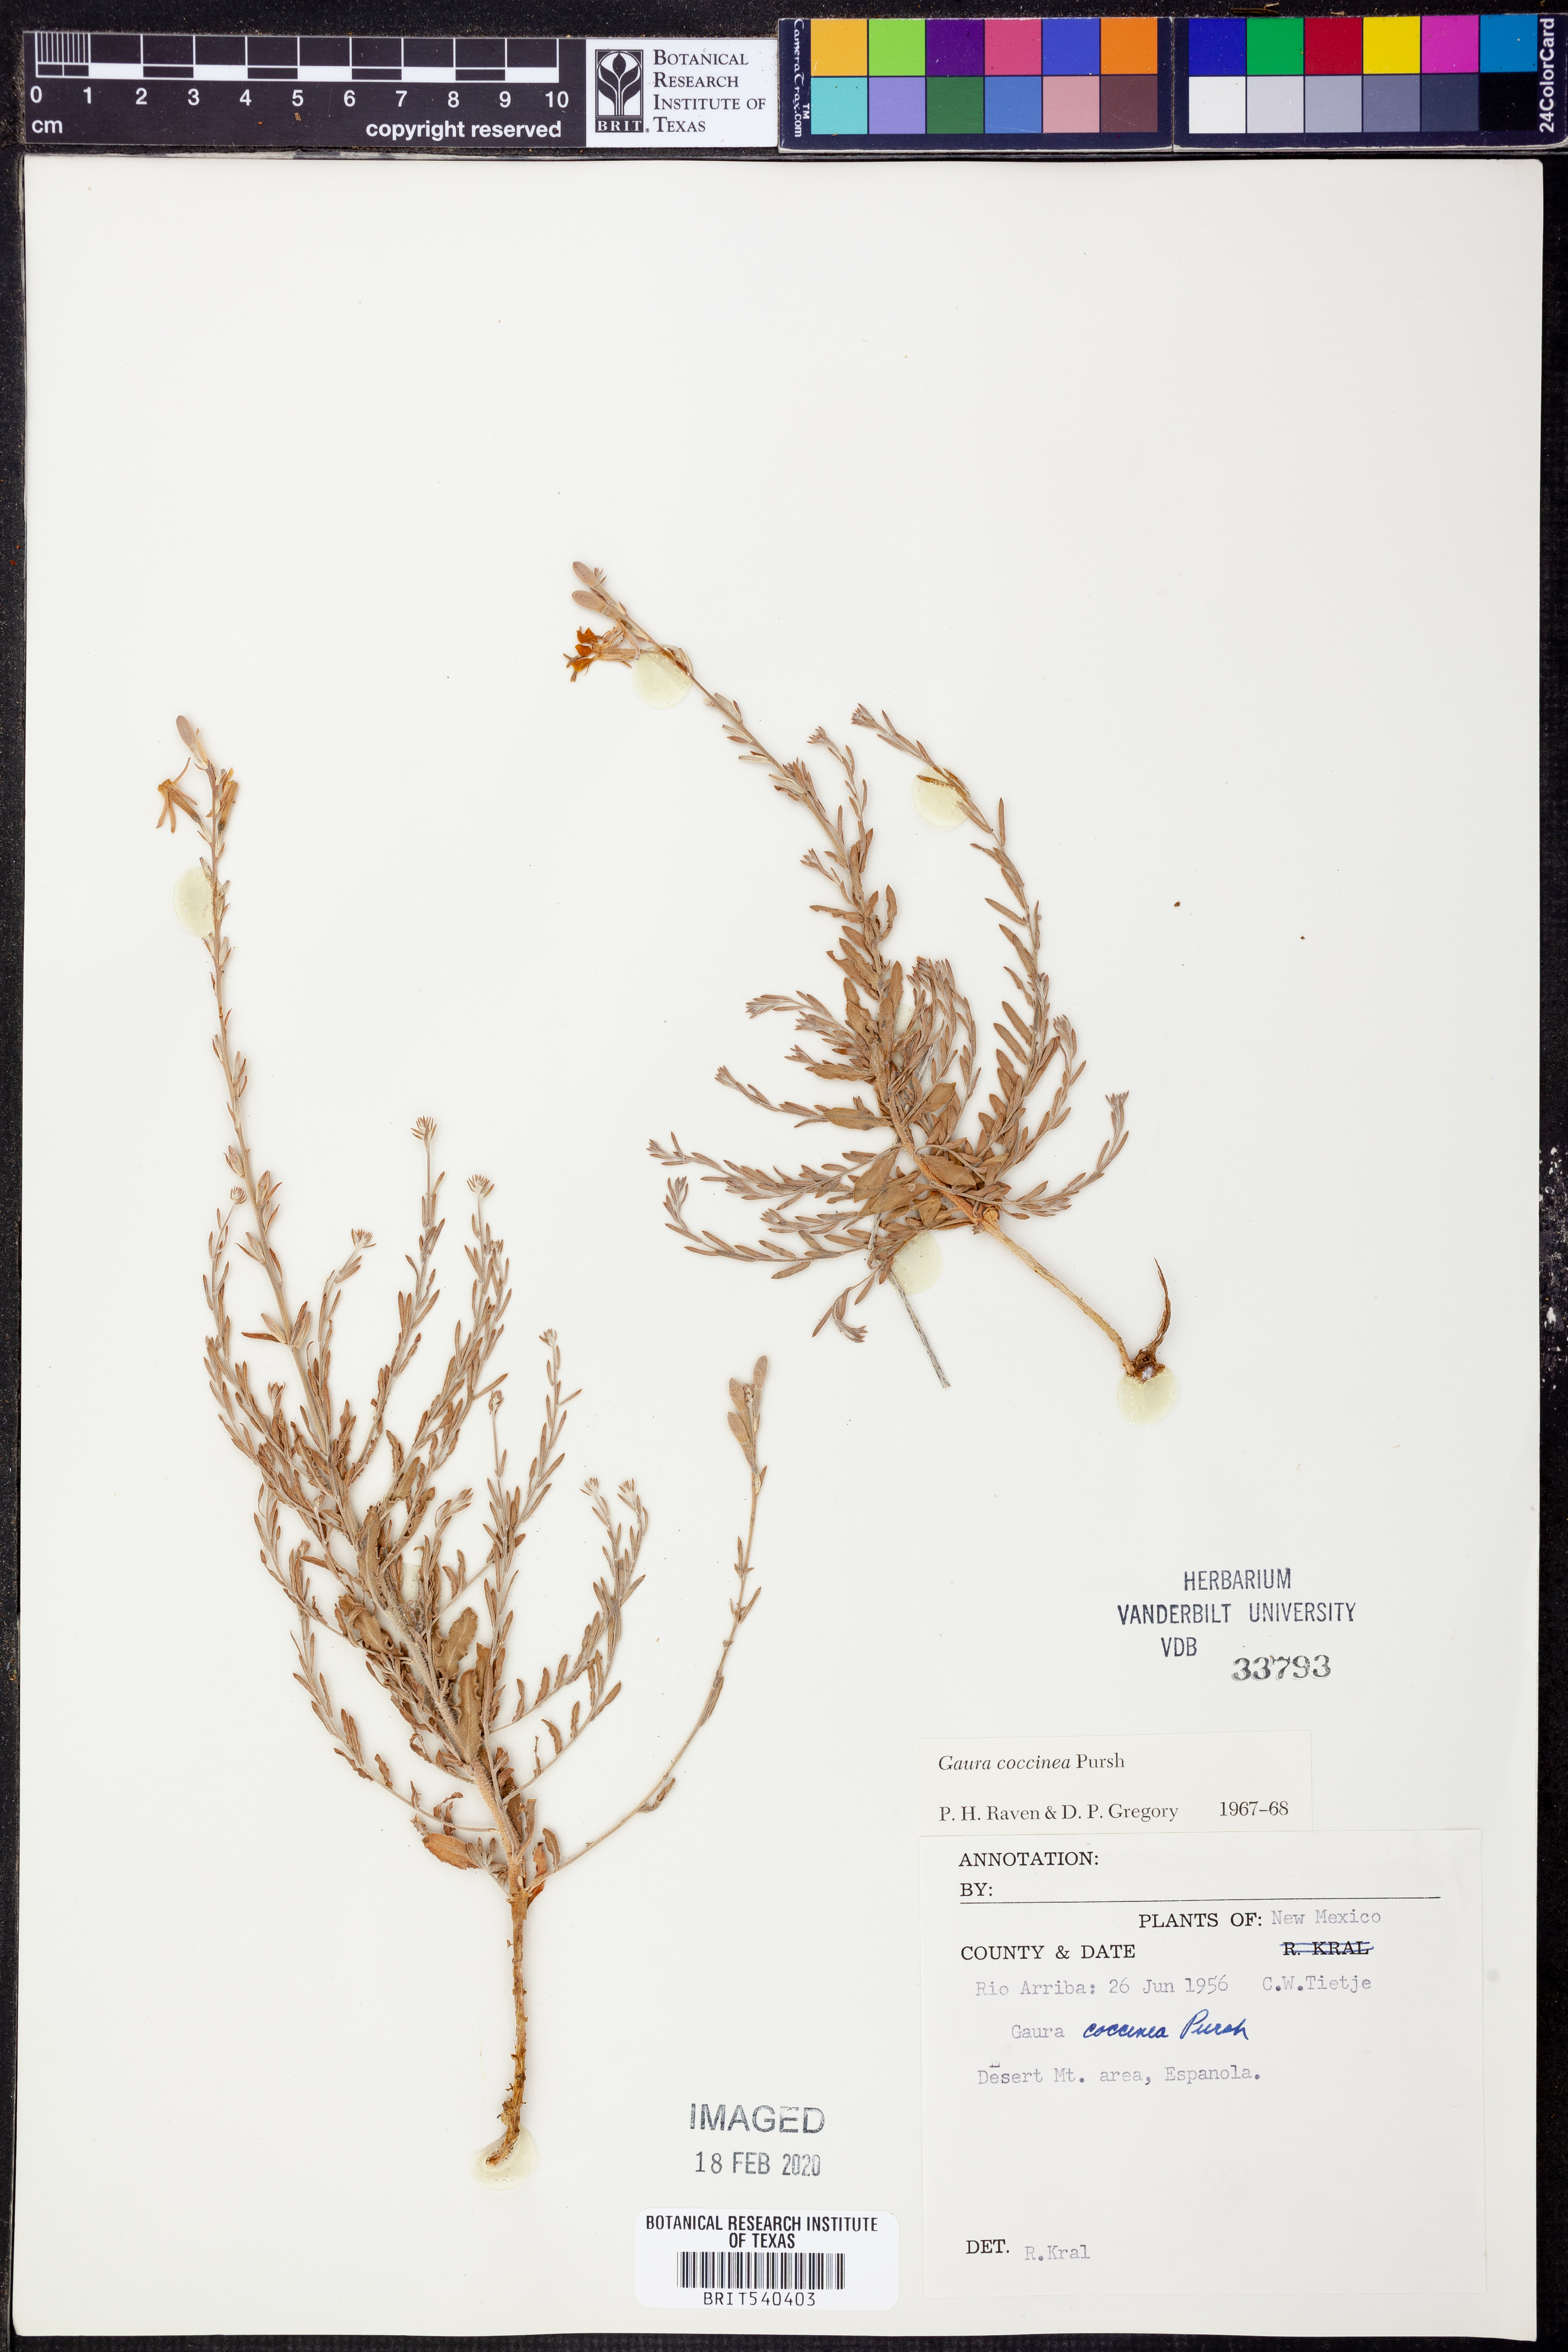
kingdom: Plantae
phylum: Tracheophyta
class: Magnoliopsida
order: Myrtales
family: Onagraceae
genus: Oenothera
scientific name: Oenothera suffrutescens
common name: Scarlet beeblossom
